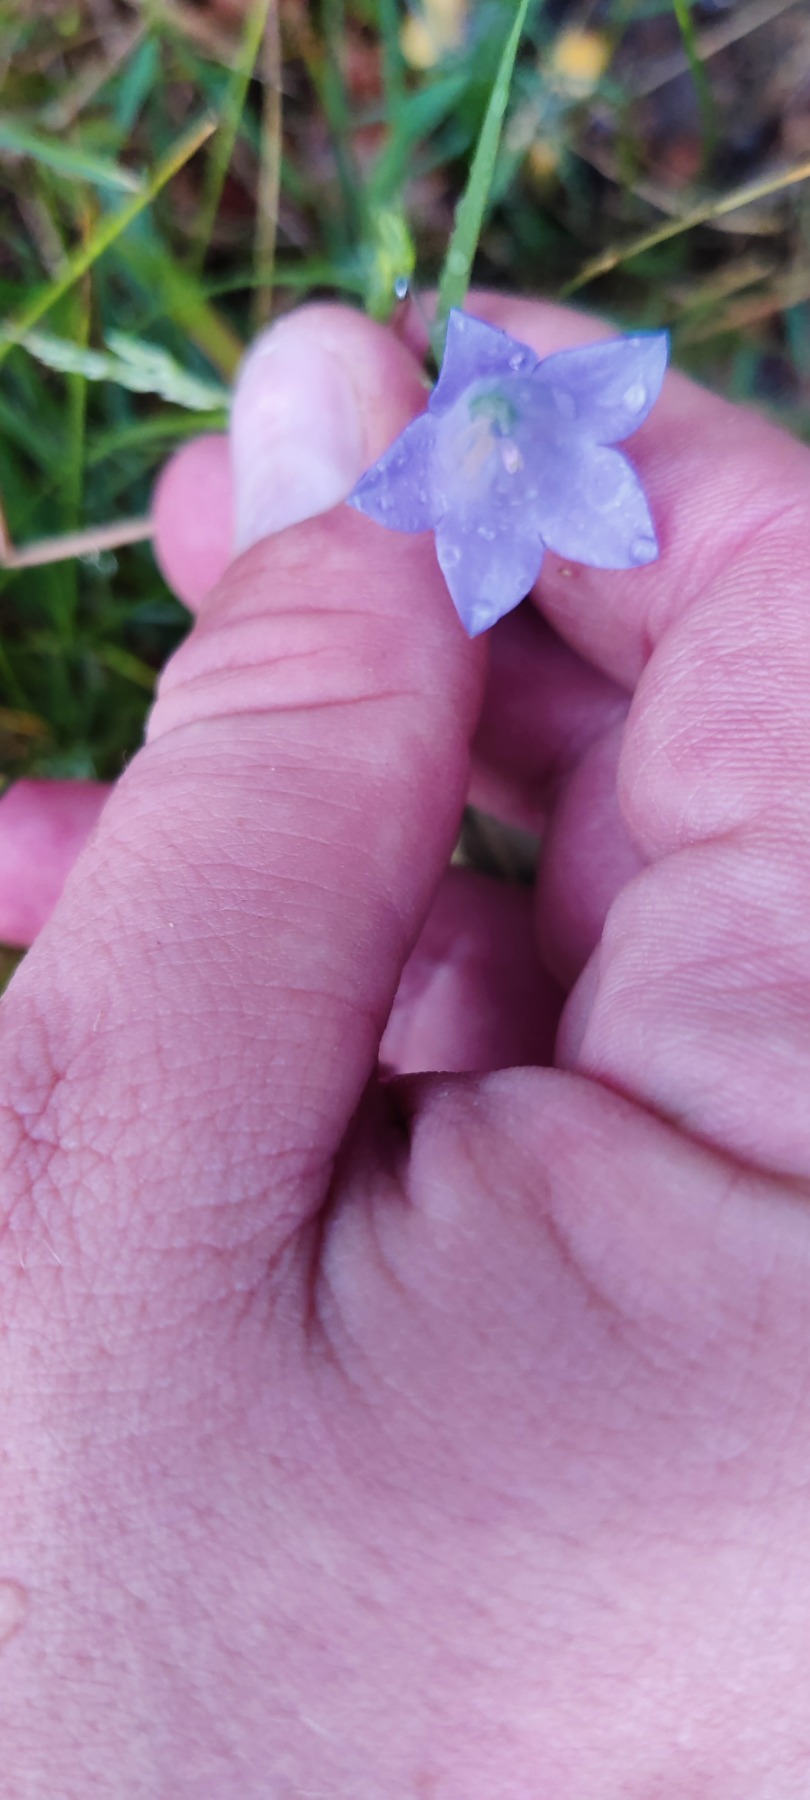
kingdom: Plantae
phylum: Tracheophyta
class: Magnoliopsida
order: Asterales
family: Campanulaceae
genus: Campanula
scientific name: Campanula rotundifolia
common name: Liden klokke
